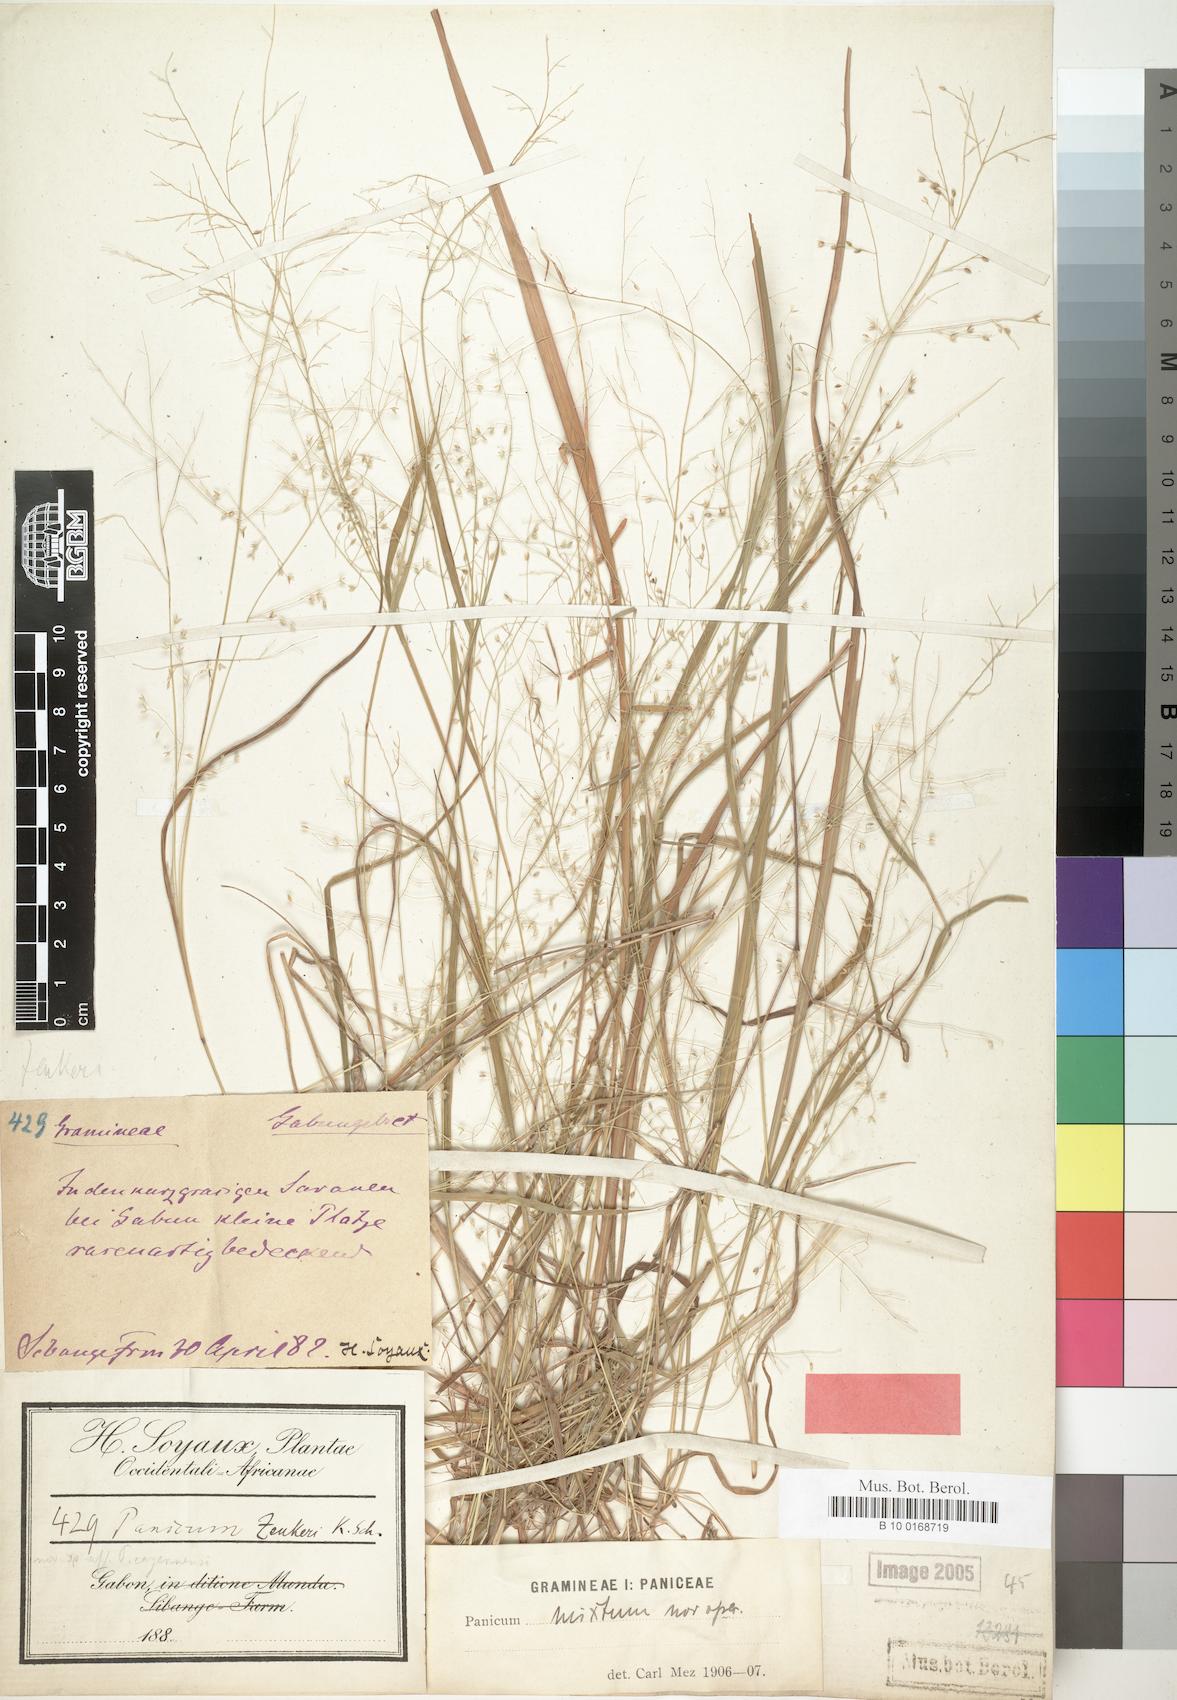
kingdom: Plantae
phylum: Tracheophyta
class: Liliopsida
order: Poales
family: Poaceae
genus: Panicum
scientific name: Panicum griffonii
